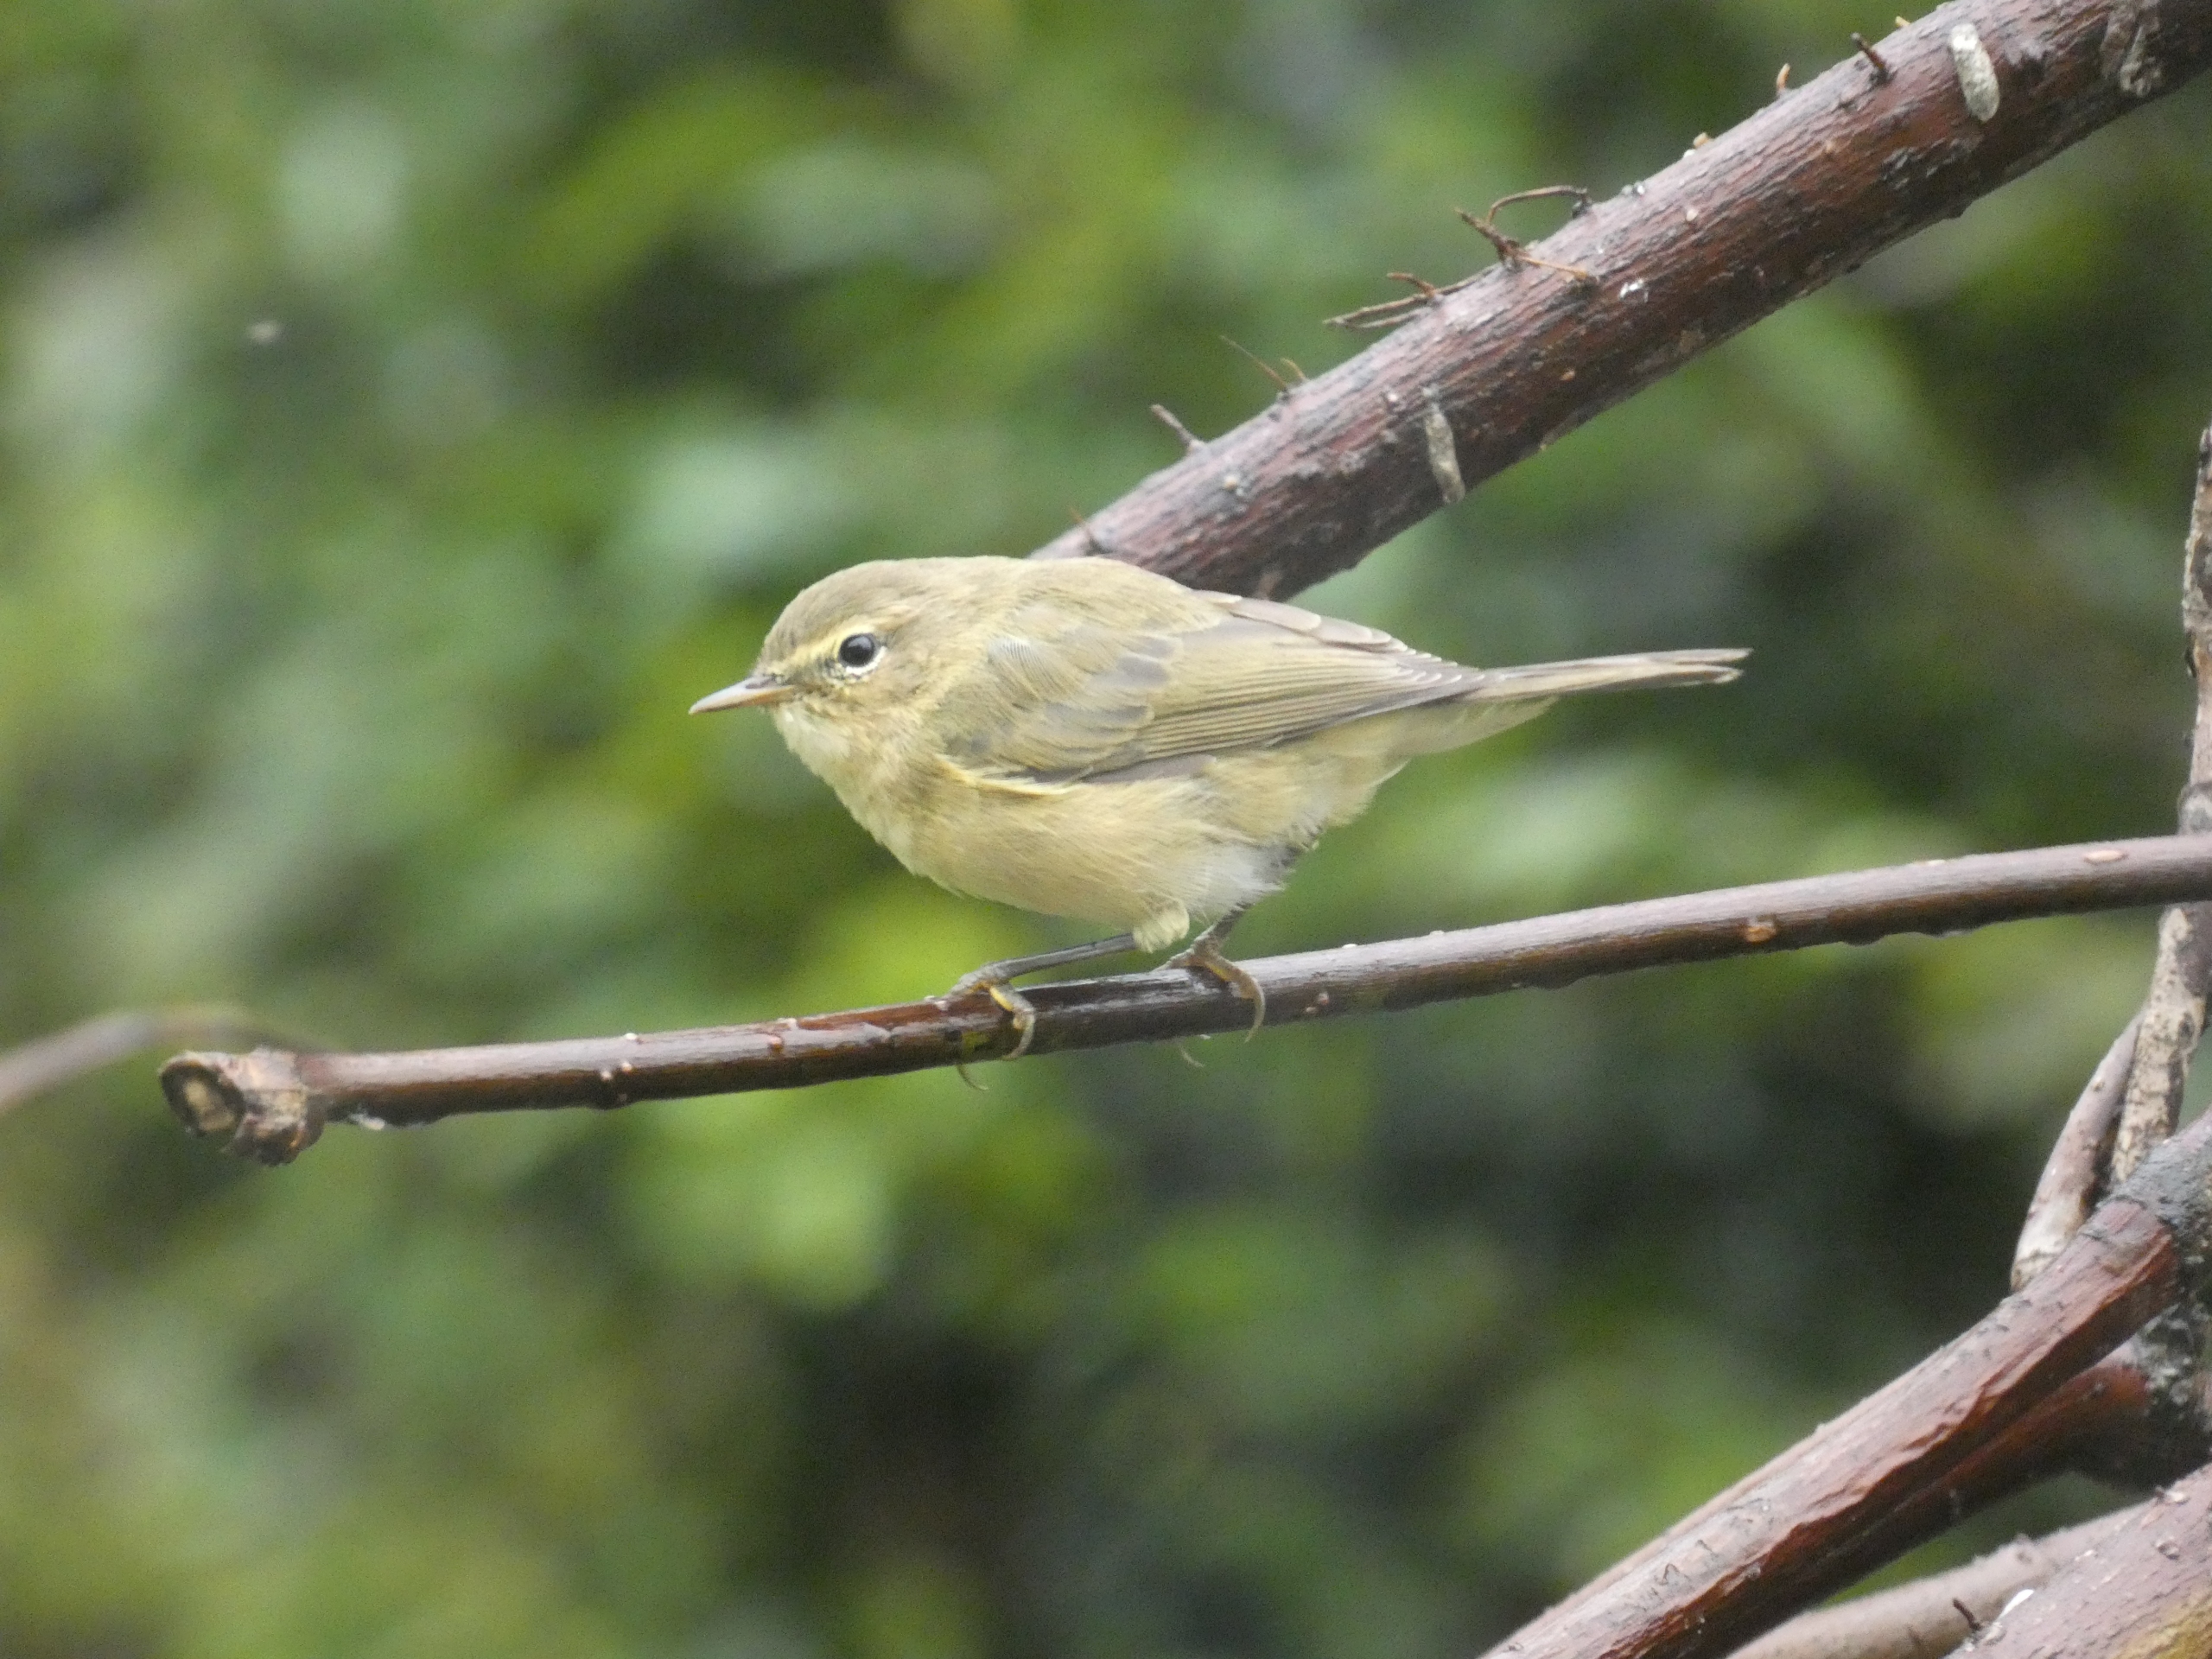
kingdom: Animalia
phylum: Chordata
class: Aves
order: Passeriformes
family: Phylloscopidae
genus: Phylloscopus
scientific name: Phylloscopus collybita
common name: Gransanger
